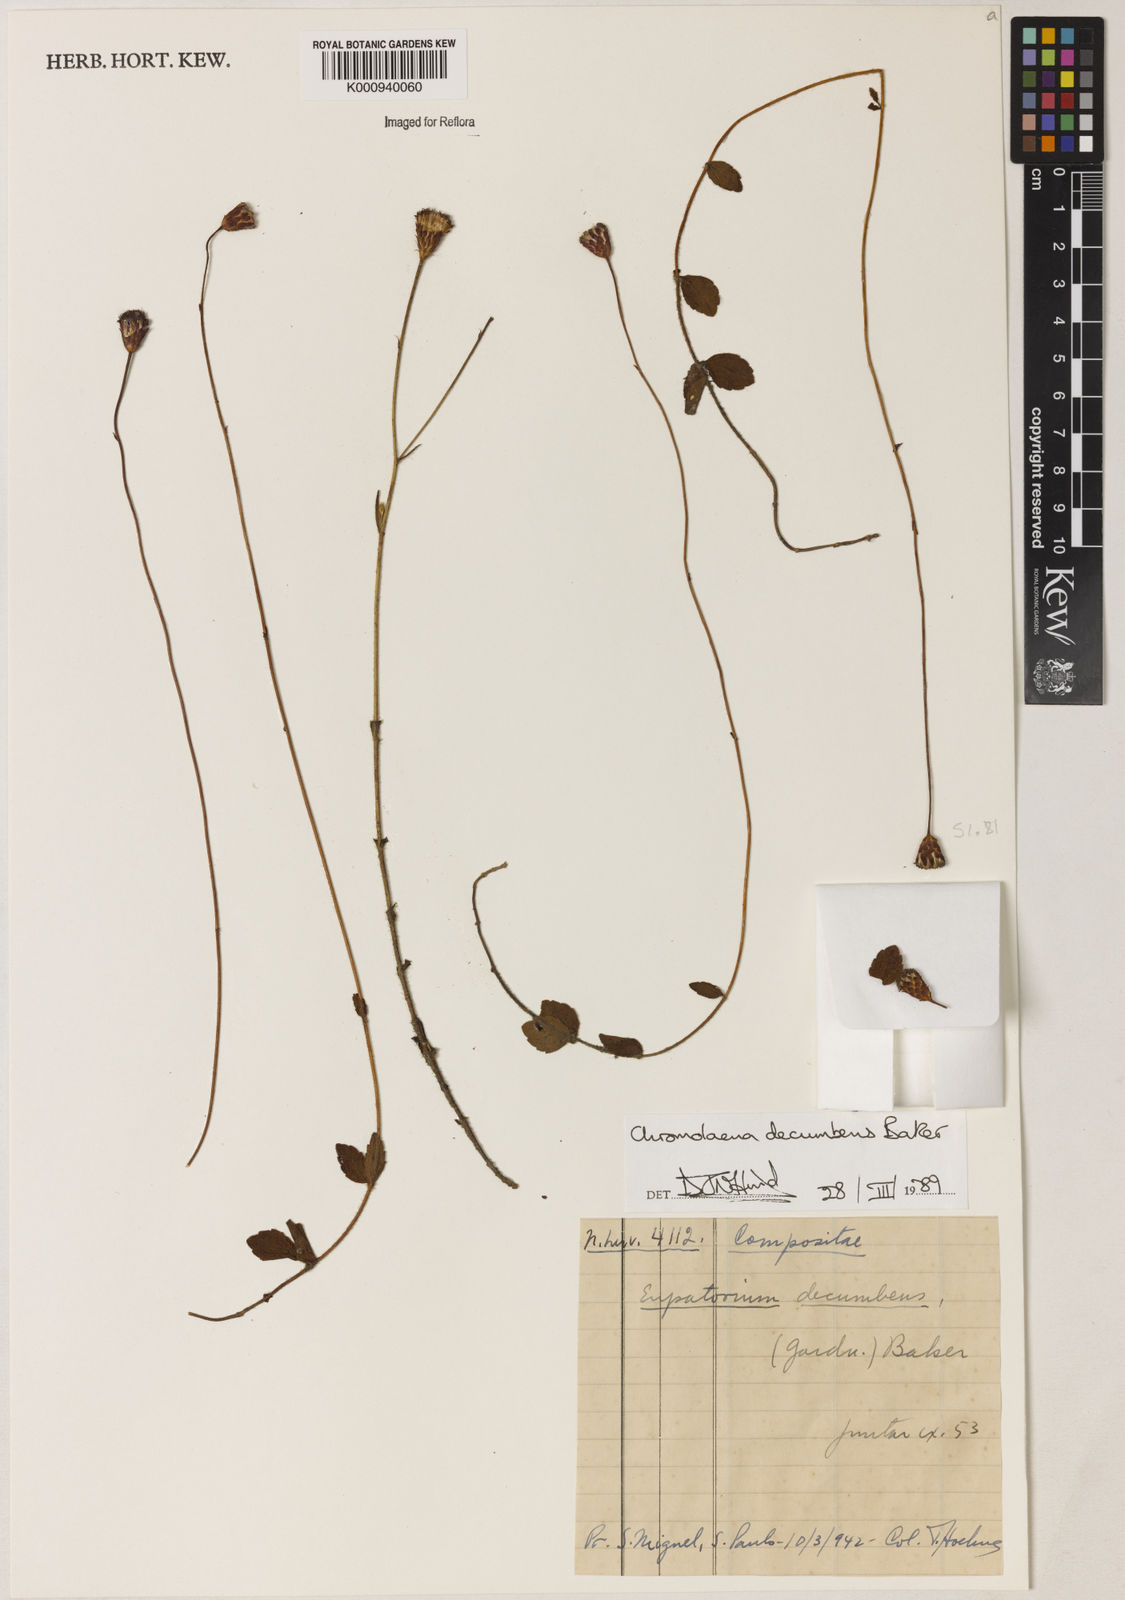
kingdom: Plantae
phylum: Tracheophyta
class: Magnoliopsida
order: Asterales
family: Asteraceae
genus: Praxelis
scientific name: Praxelis decumbens
